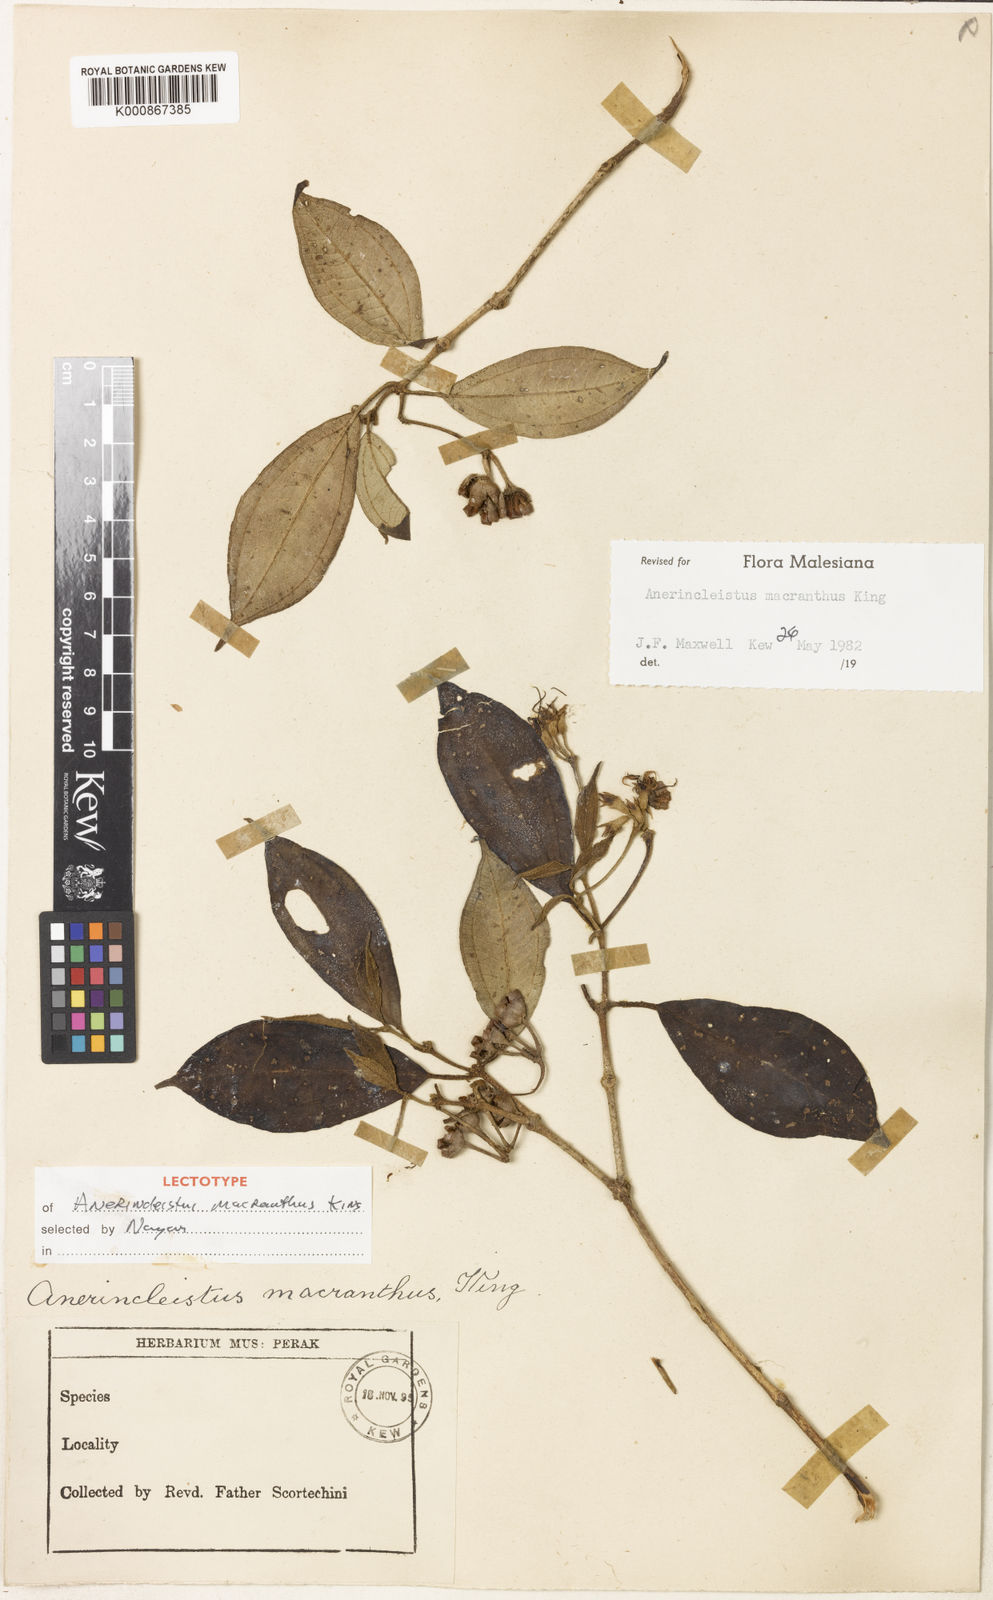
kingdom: Plantae
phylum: Tracheophyta
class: Magnoliopsida
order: Myrtales
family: Melastomataceae
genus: Anerincleistus
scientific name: Anerincleistus macranthus
